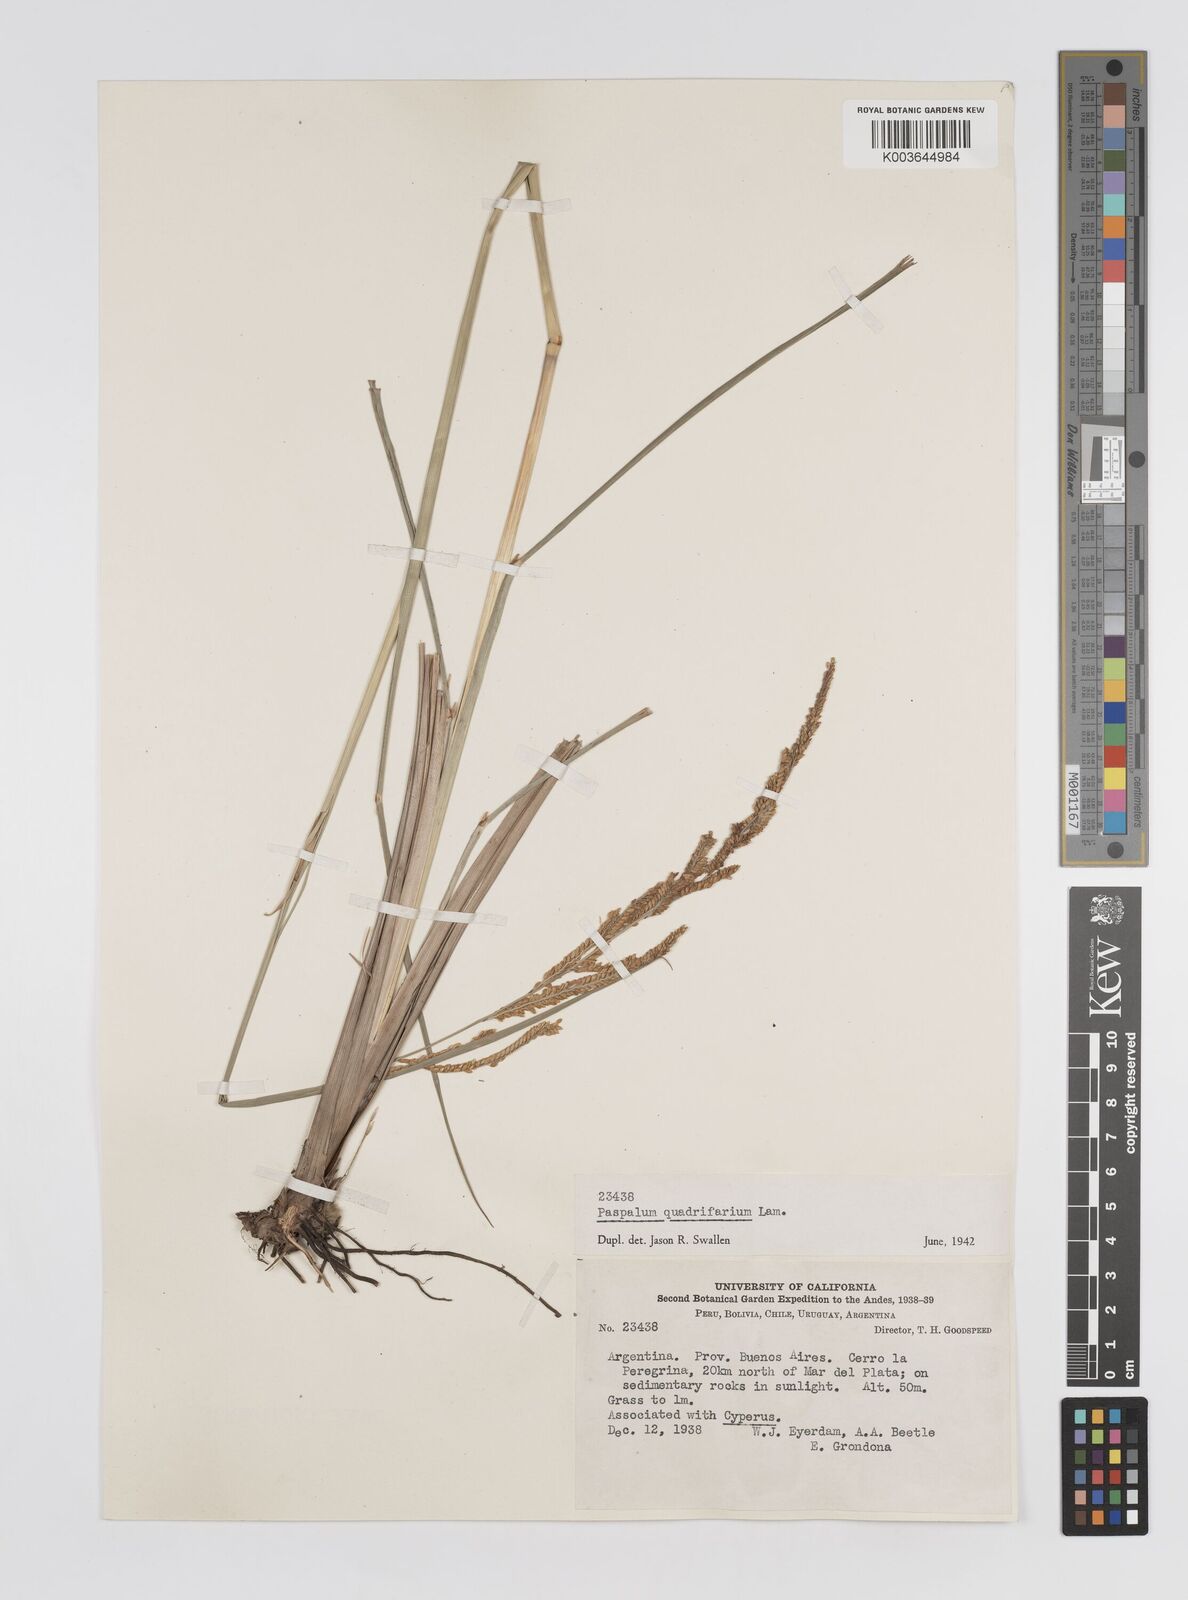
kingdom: Plantae
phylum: Tracheophyta
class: Liliopsida
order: Poales
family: Poaceae
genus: Paspalum
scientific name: Paspalum quadrifarium
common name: Tussock paspalum
